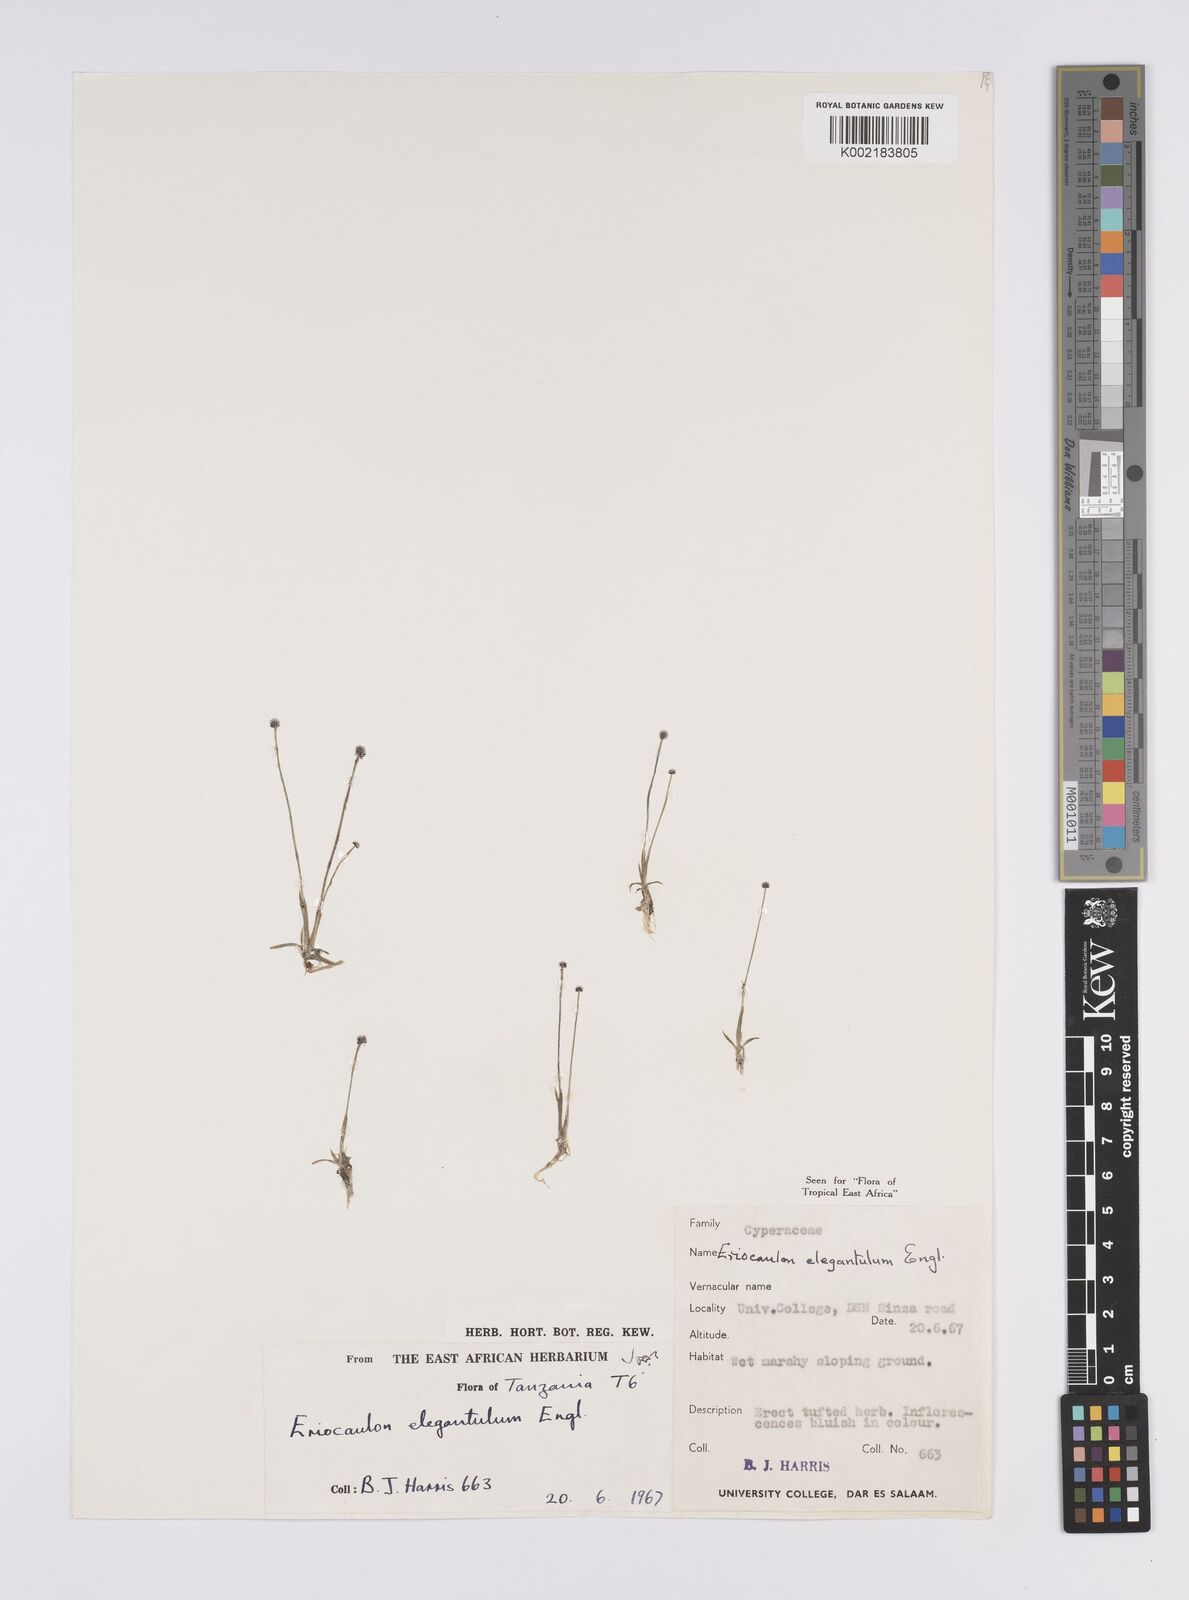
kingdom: Plantae
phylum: Tracheophyta
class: Liliopsida
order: Poales
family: Eriocaulaceae
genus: Eriocaulon
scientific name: Eriocaulon elegantulum
